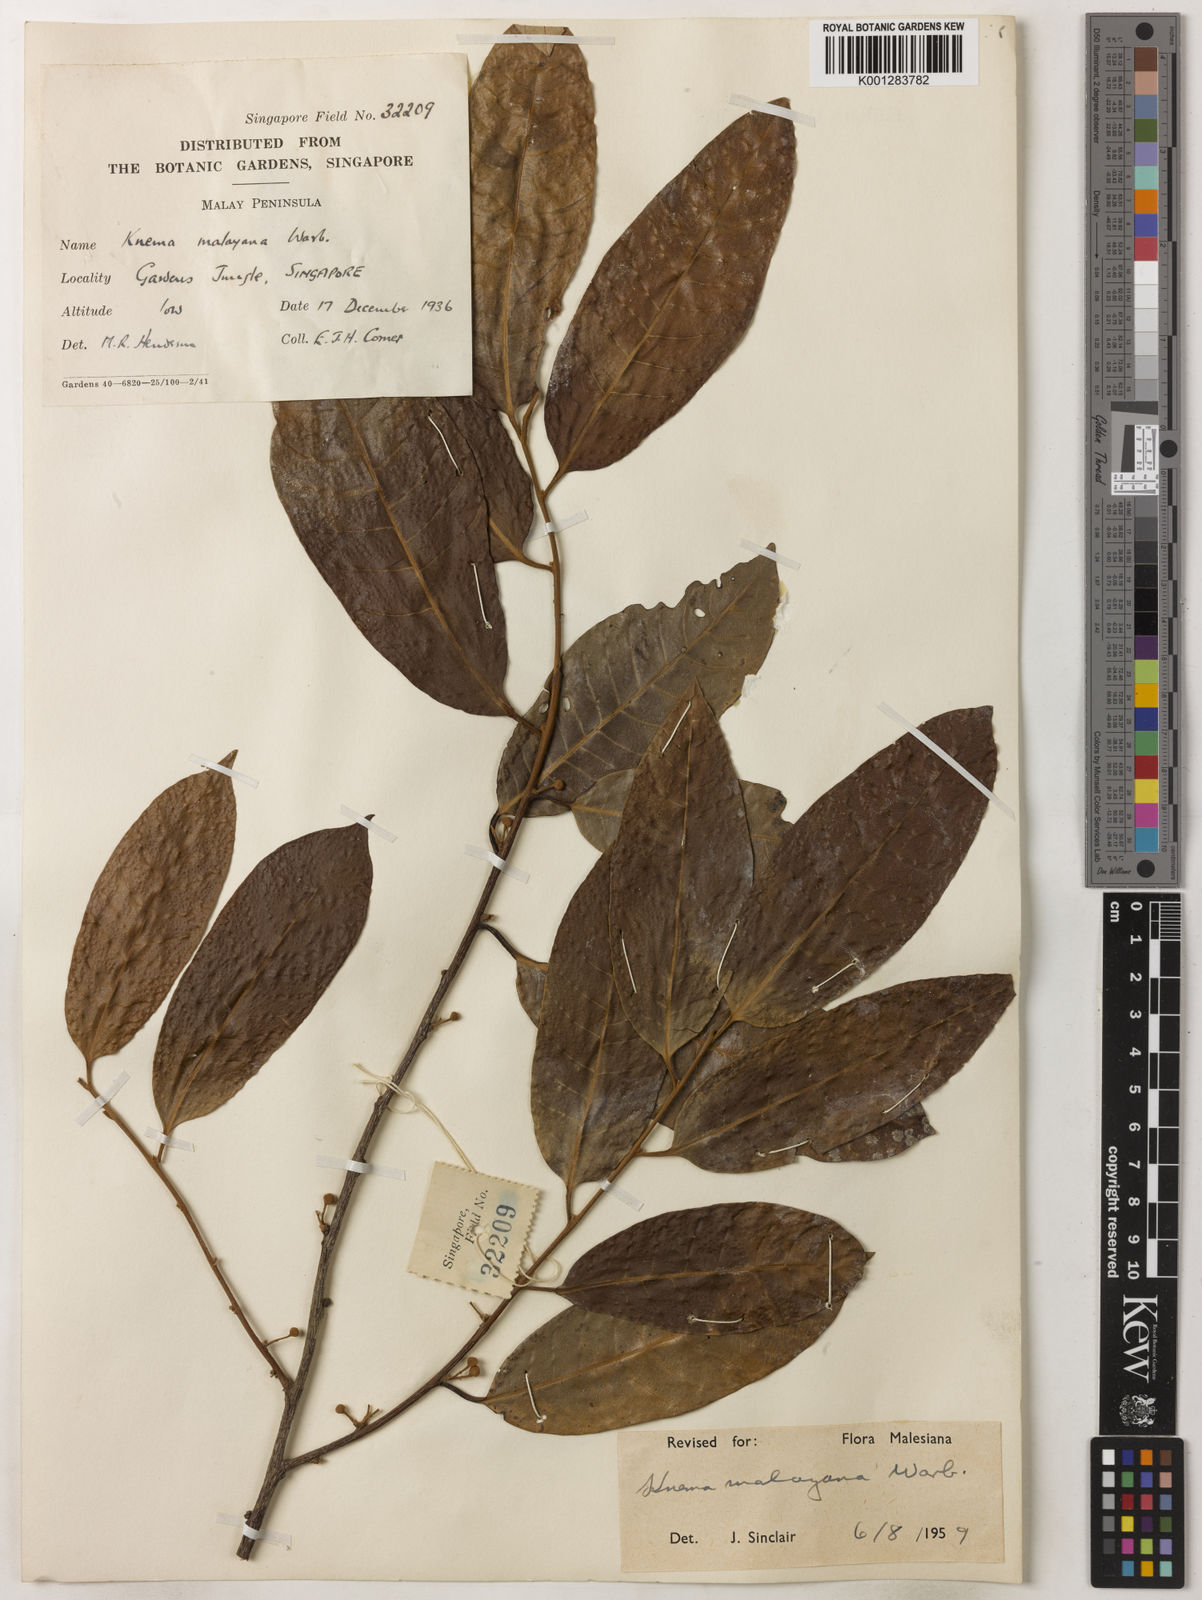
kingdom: Plantae
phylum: Tracheophyta
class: Magnoliopsida
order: Magnoliales
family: Myristicaceae
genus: Knema
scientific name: Knema malayana
